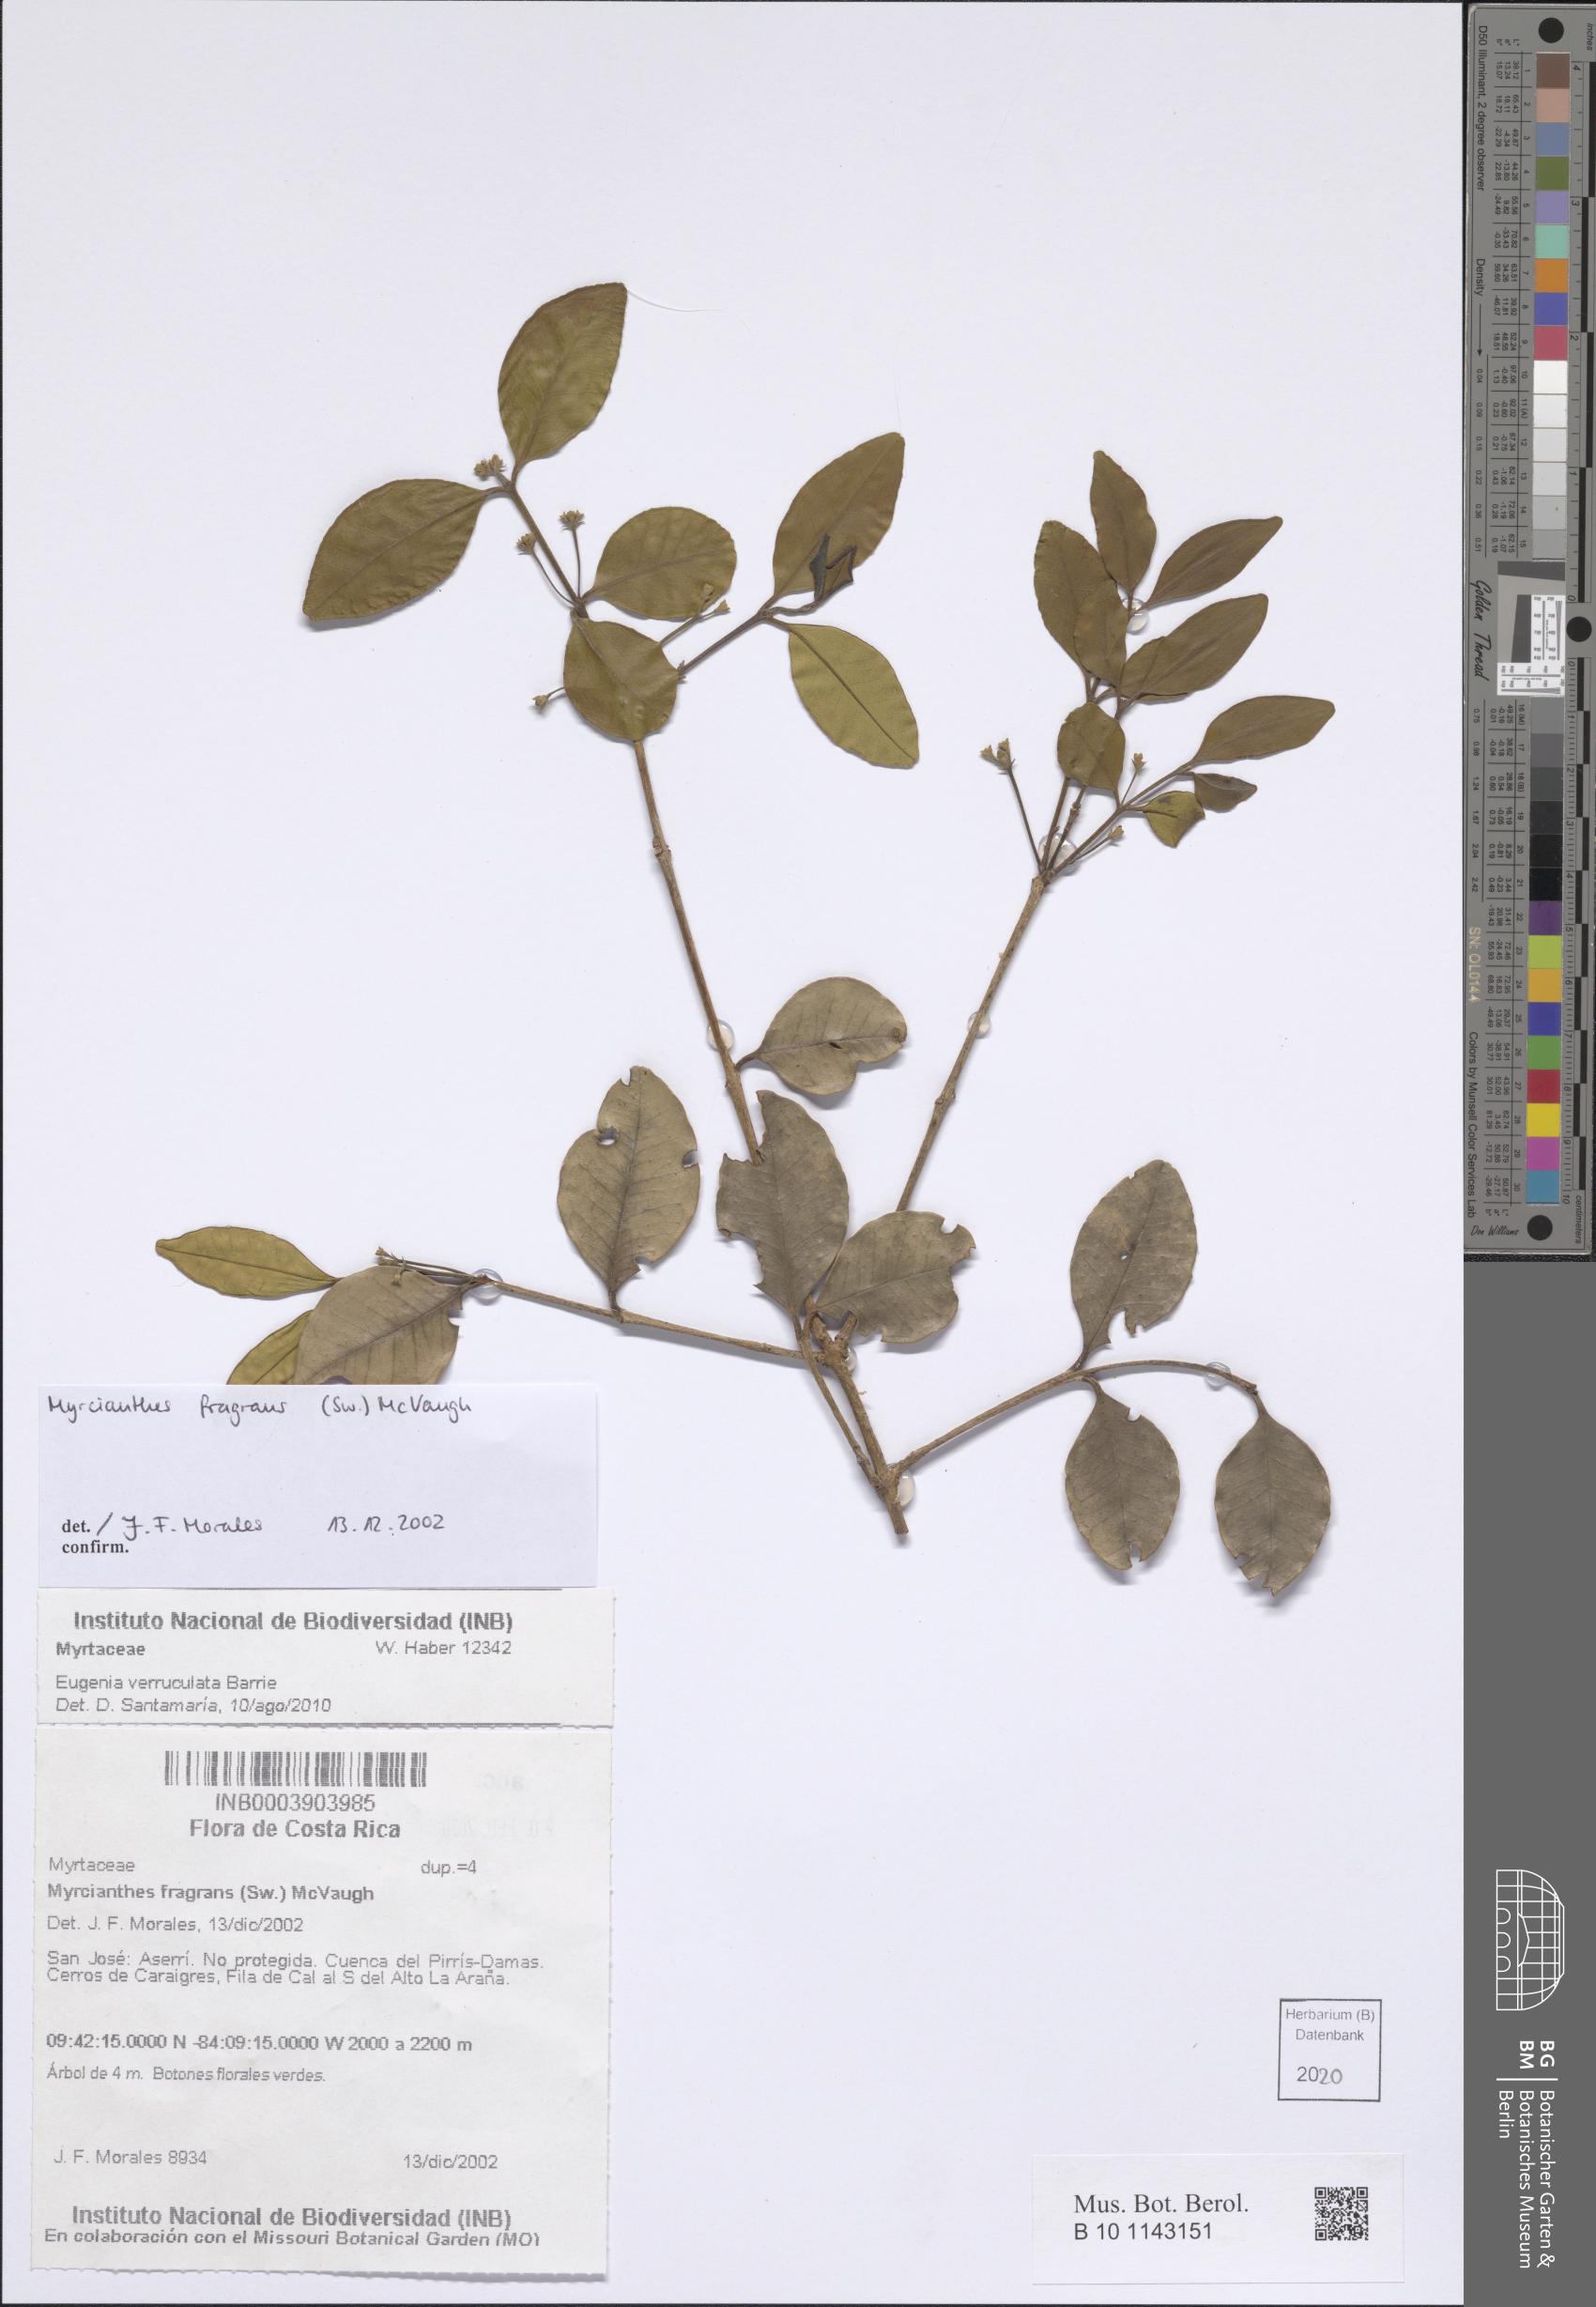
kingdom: Plantae
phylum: Tracheophyta
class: Magnoliopsida
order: Myrtales
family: Myrtaceae
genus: Myrcianthes
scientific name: Myrcianthes fragrans
